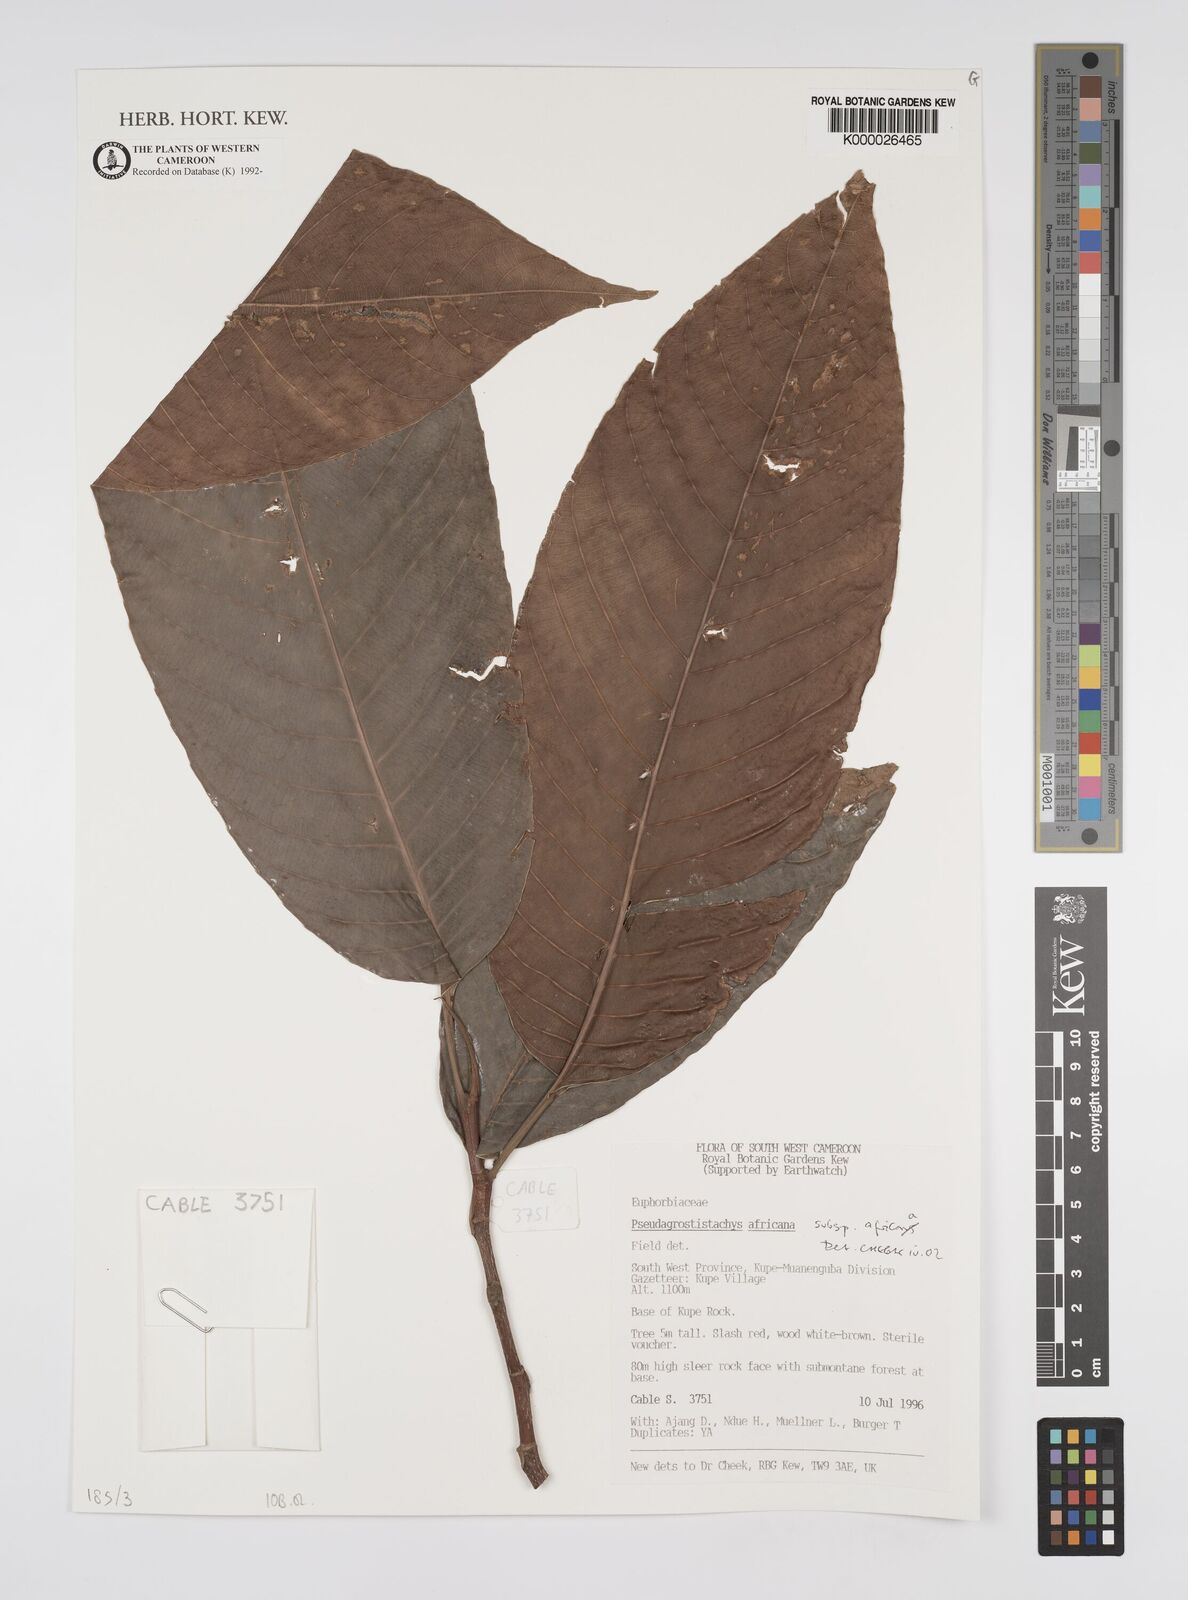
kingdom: Plantae
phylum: Tracheophyta
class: Magnoliopsida
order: Malpighiales
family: Euphorbiaceae
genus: Pseudagrostistachys
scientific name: Pseudagrostistachys
